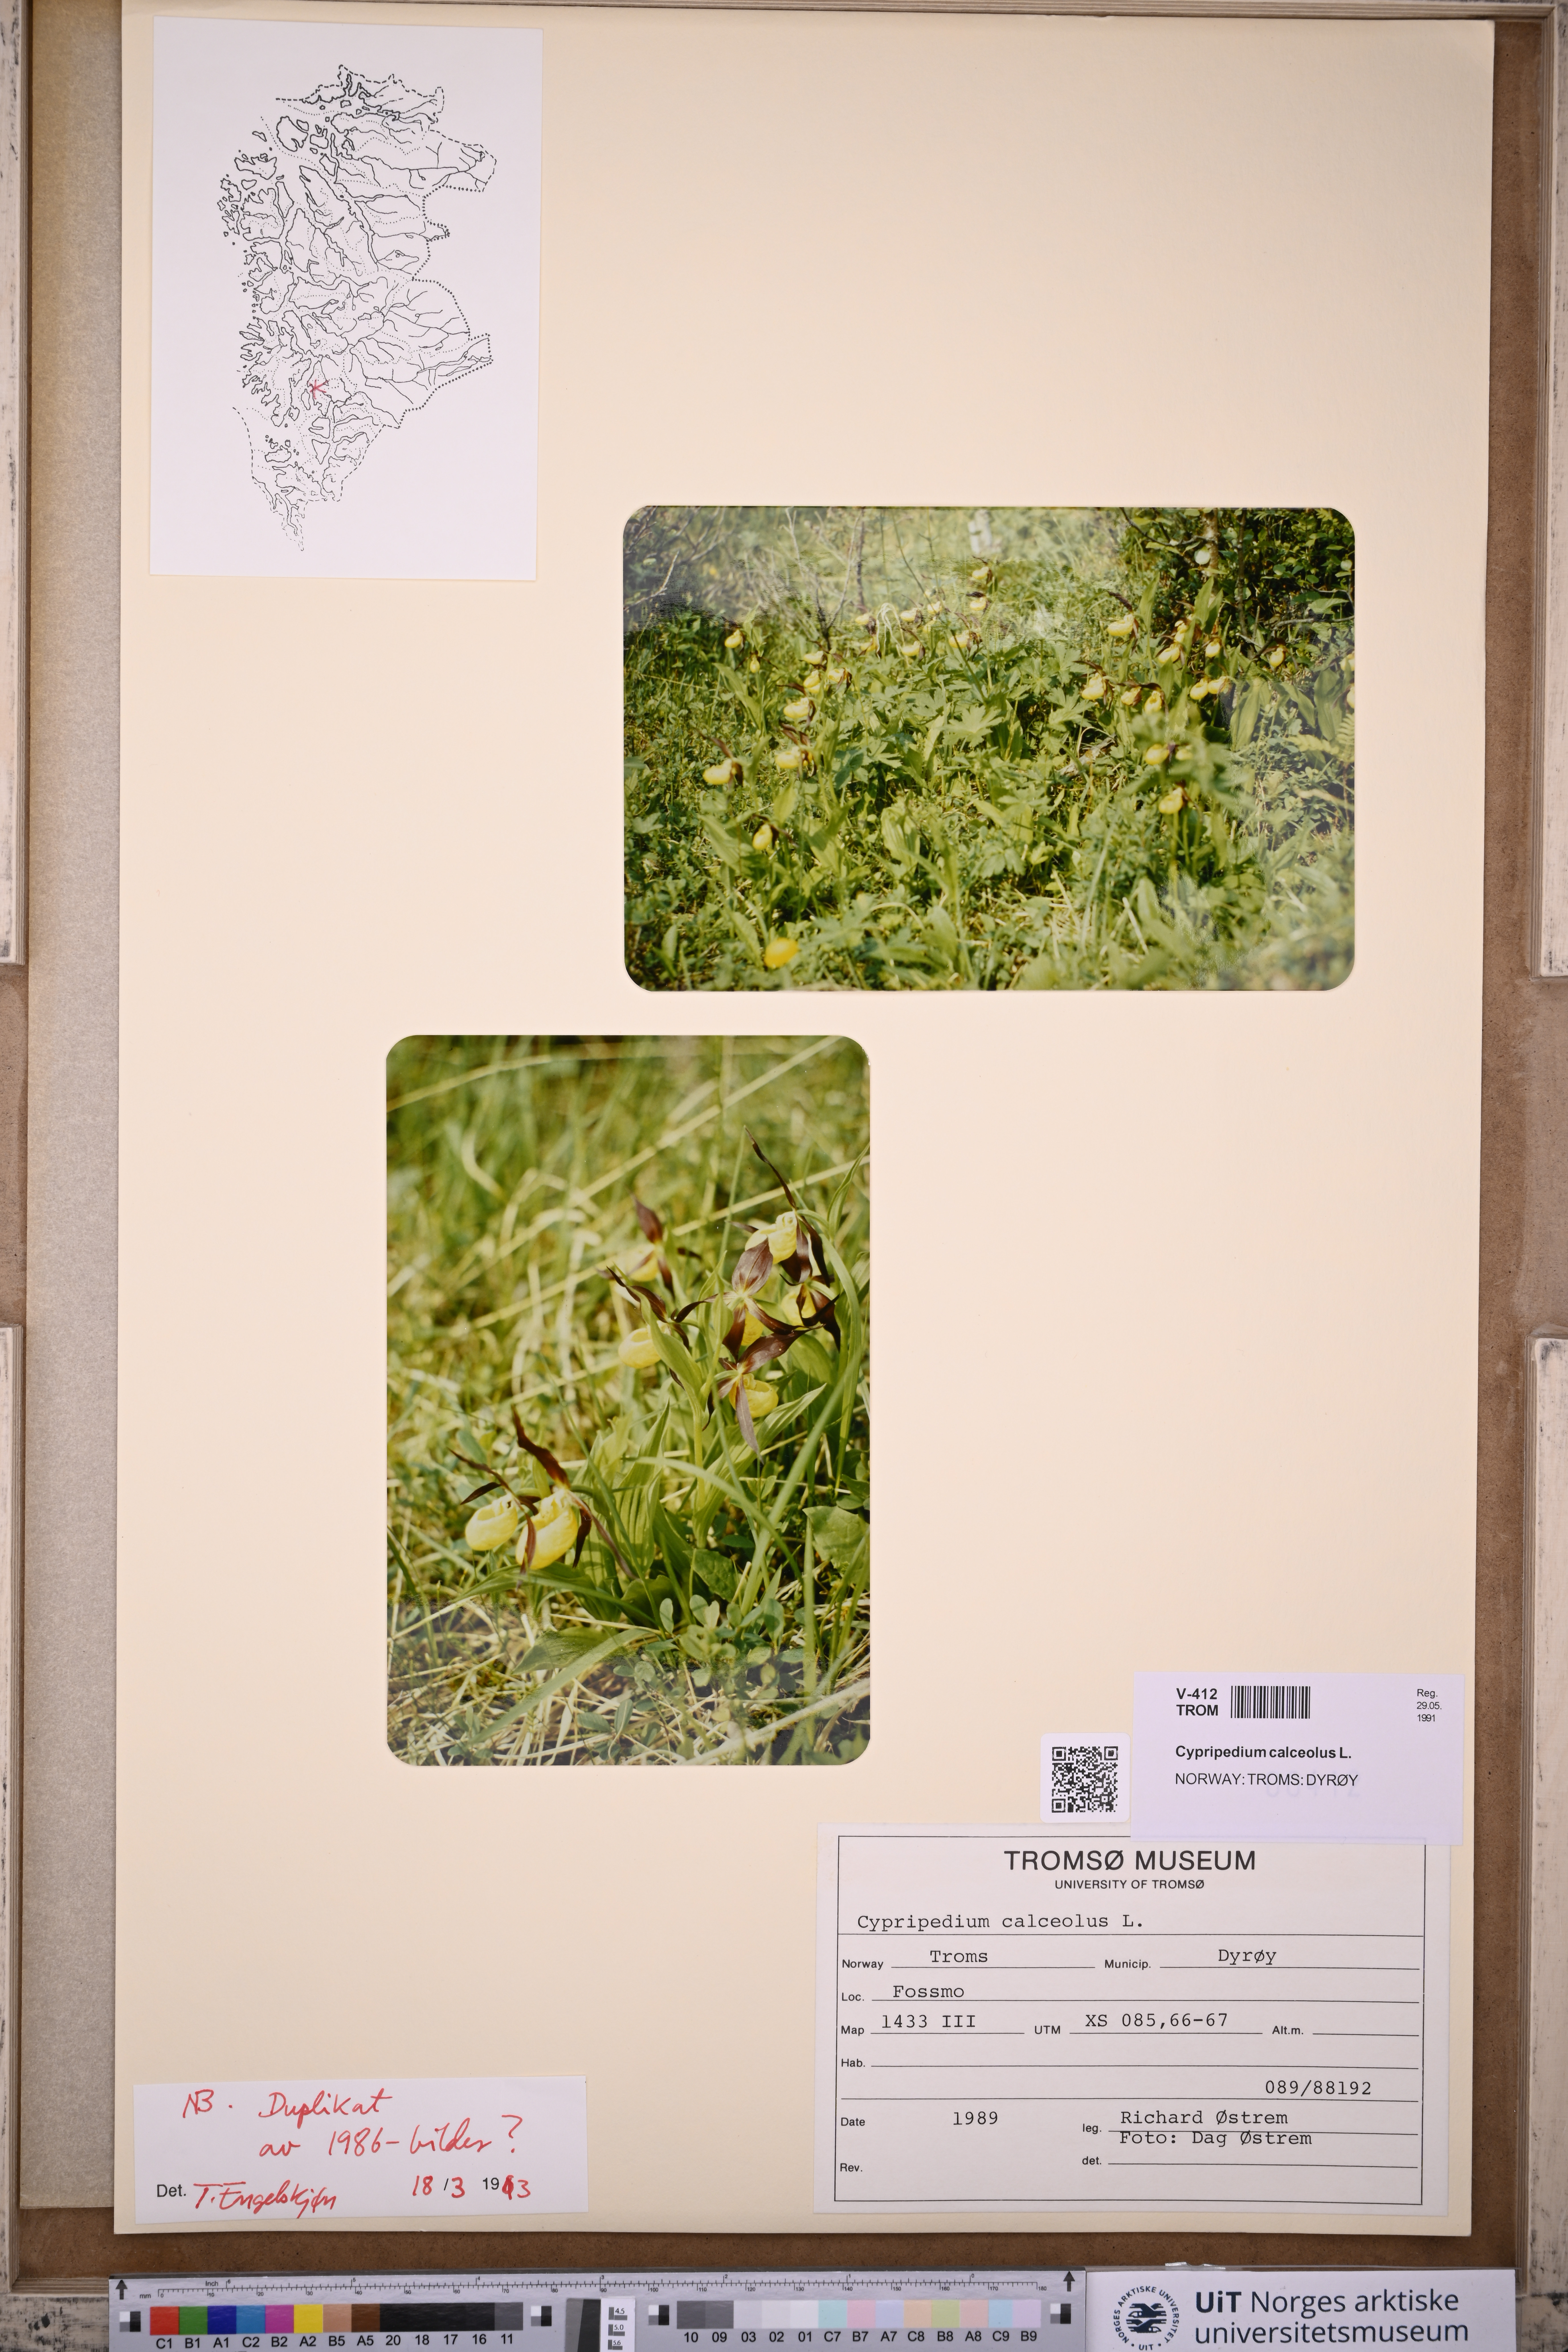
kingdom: Plantae
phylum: Tracheophyta
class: Liliopsida
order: Asparagales
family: Orchidaceae
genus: Cypripedium
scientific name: Cypripedium calceolus
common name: Lady's-slipper
